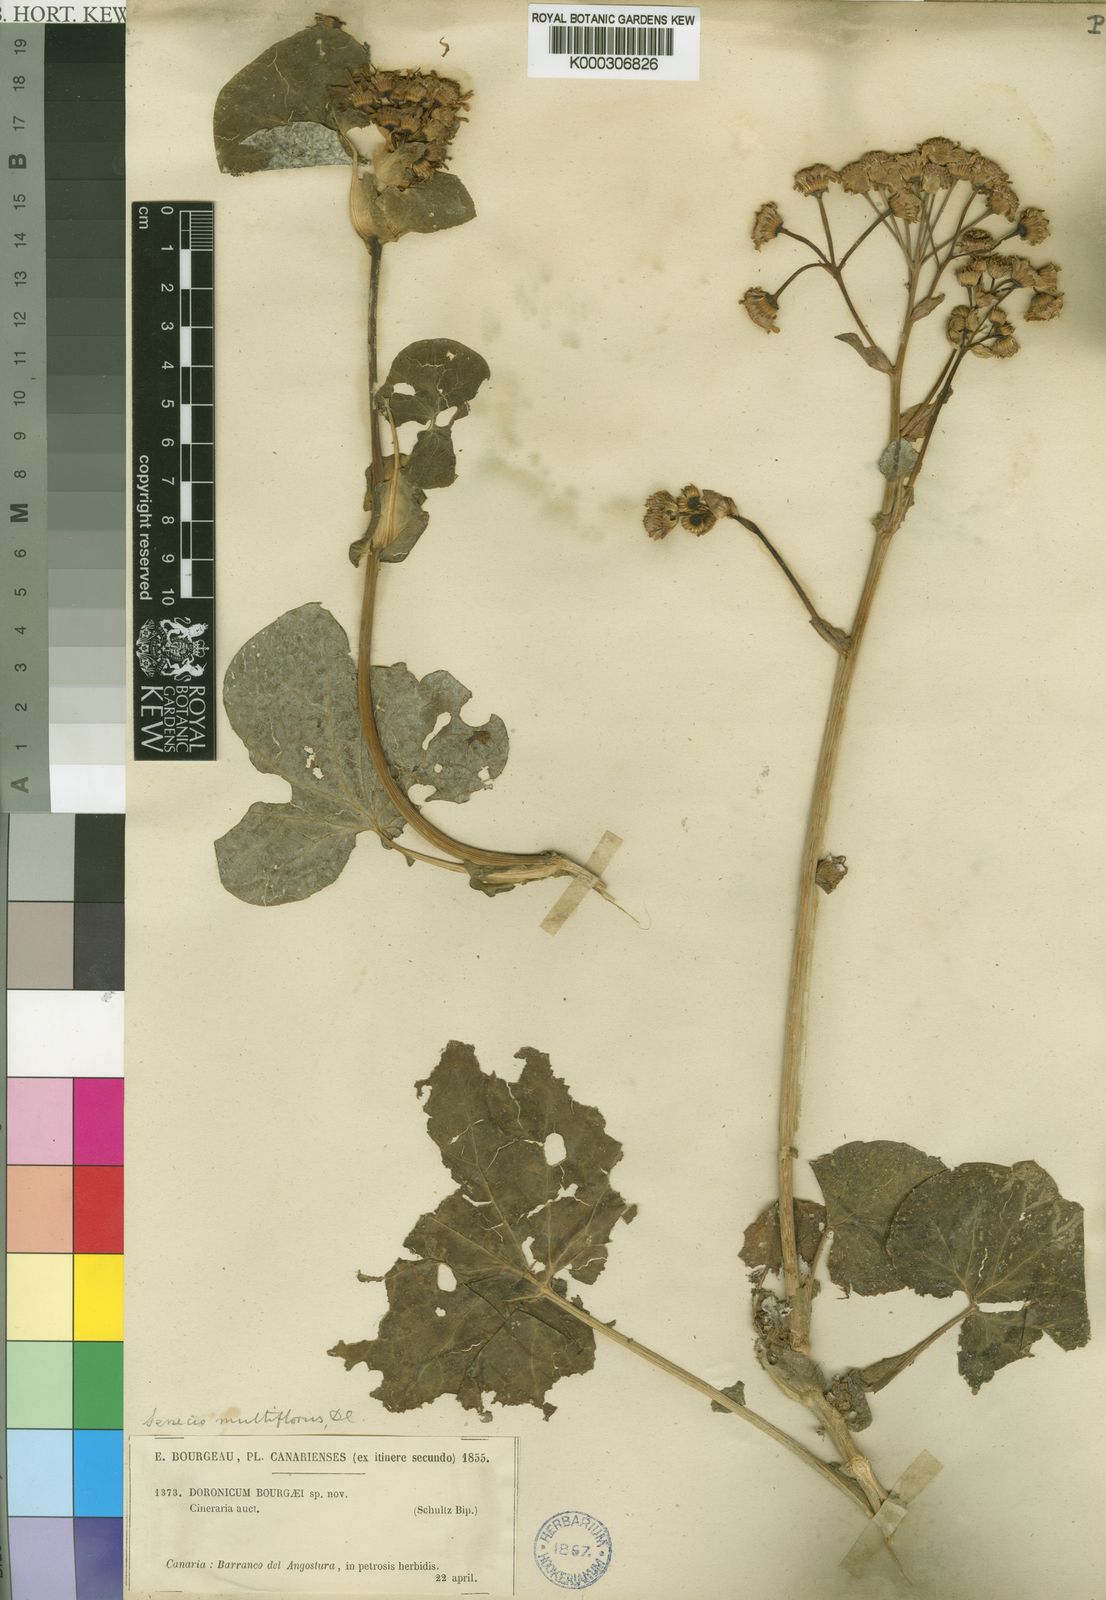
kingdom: Plantae
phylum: Tracheophyta
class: Magnoliopsida
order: Asterales
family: Asteraceae
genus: Pericallis
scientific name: Pericallis webbii
